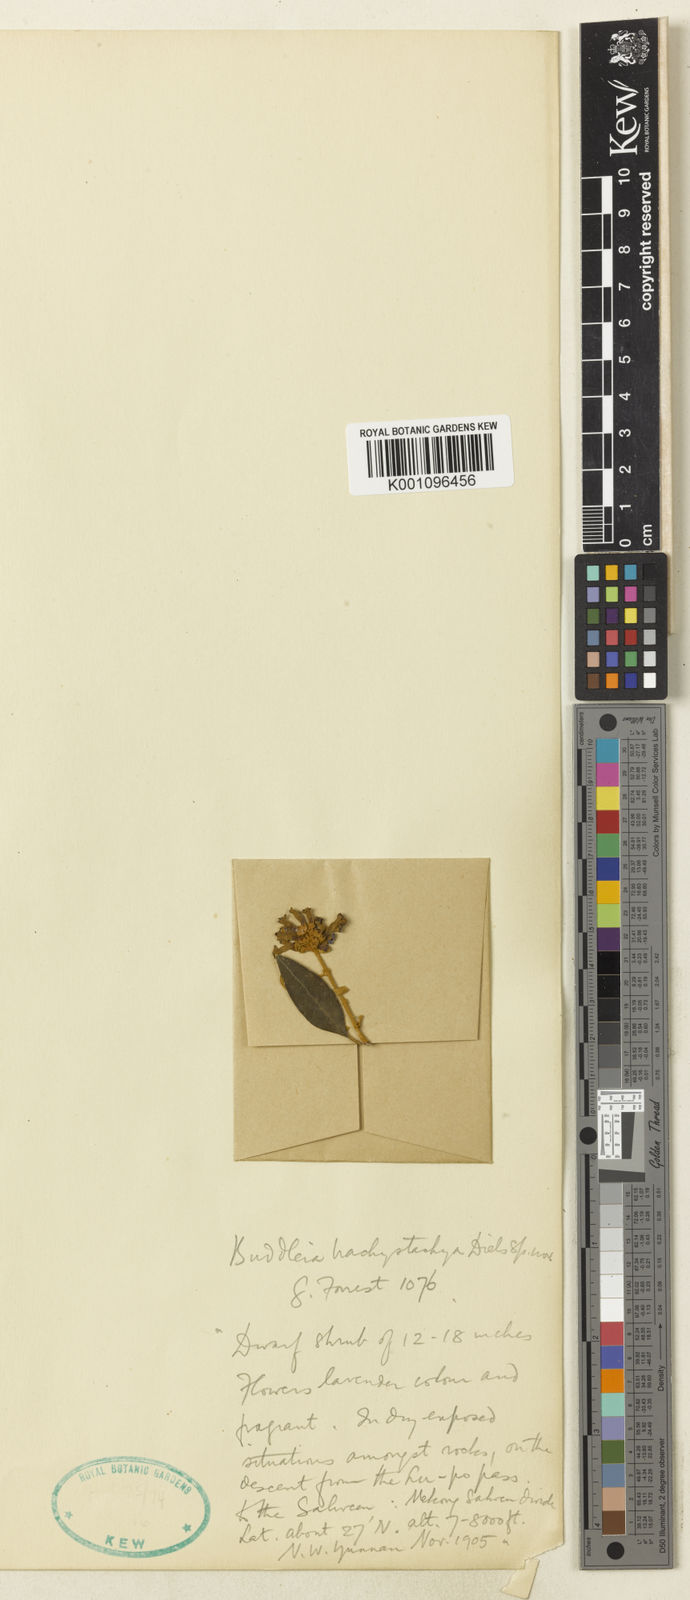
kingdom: Plantae
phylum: Tracheophyta
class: Magnoliopsida
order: Lamiales
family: Scrophulariaceae
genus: Buddleja
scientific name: Buddleja brachystachya
